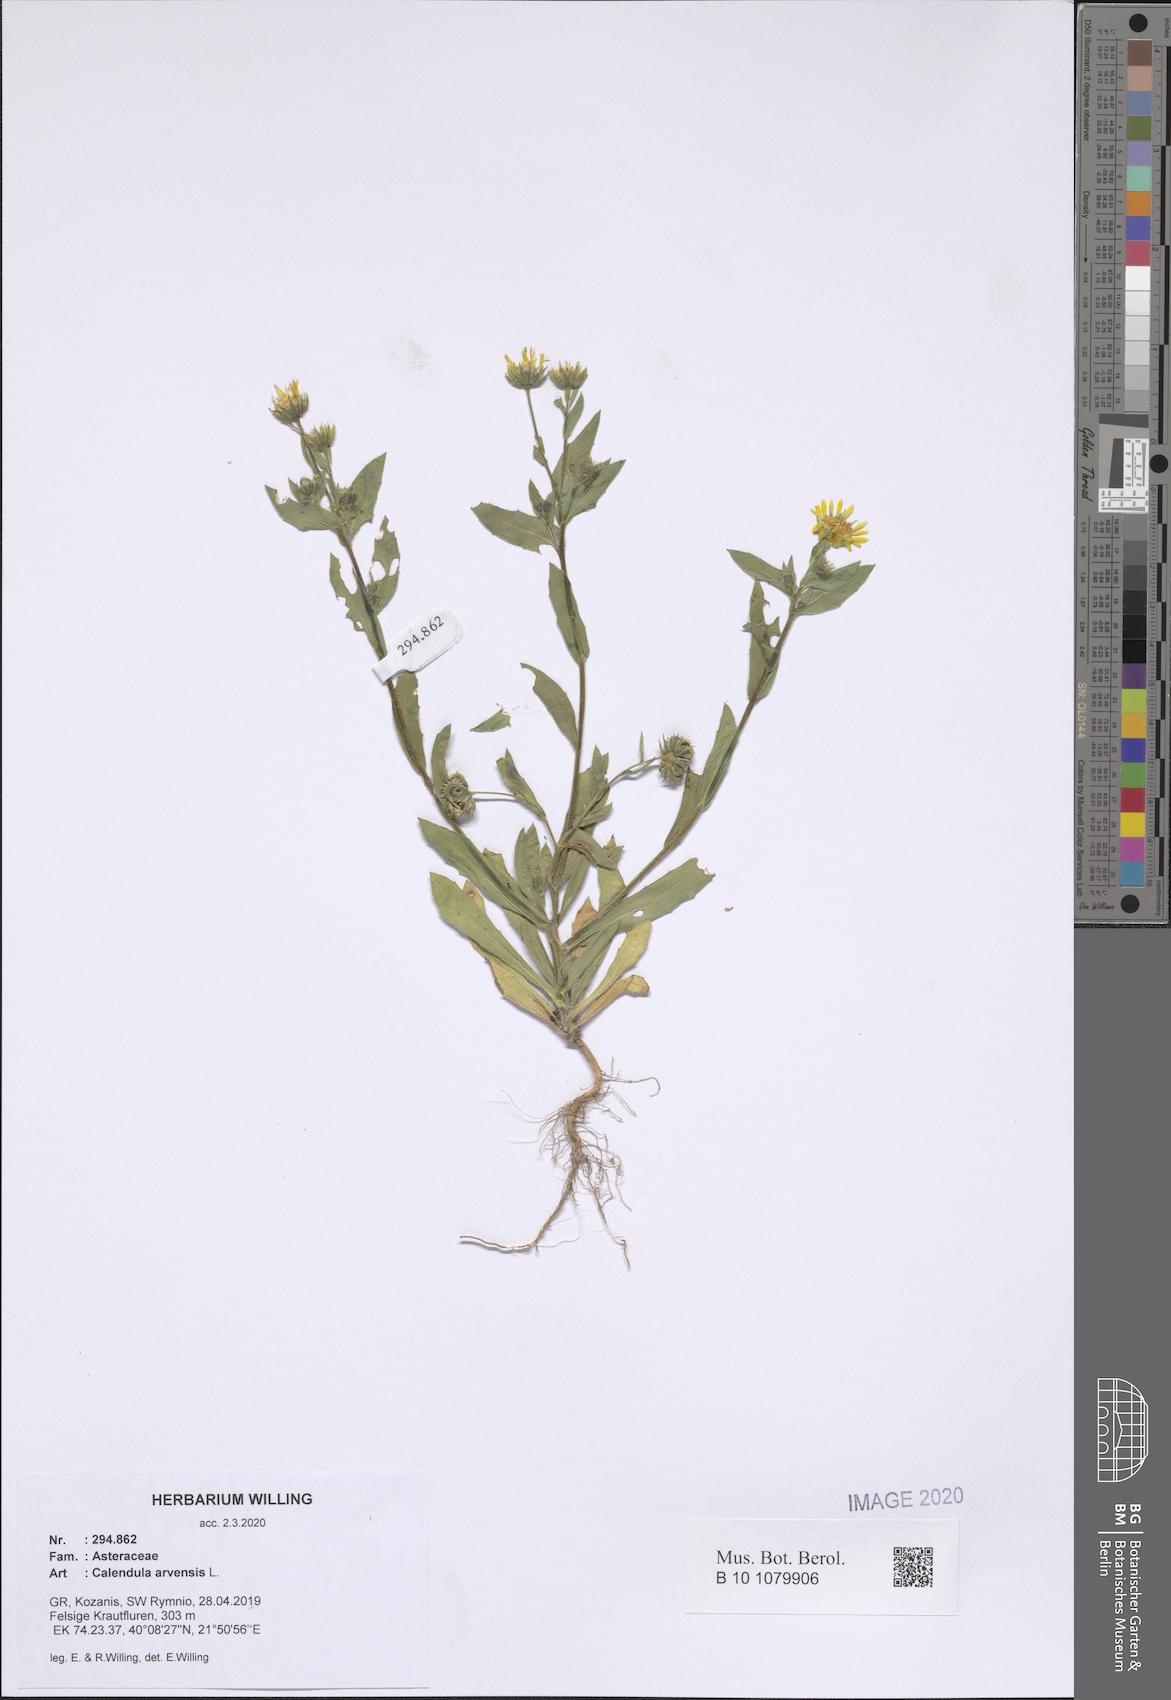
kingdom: Plantae
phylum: Tracheophyta
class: Magnoliopsida
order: Asterales
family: Asteraceae
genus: Calendula
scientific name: Calendula arvensis
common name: Field marigold
